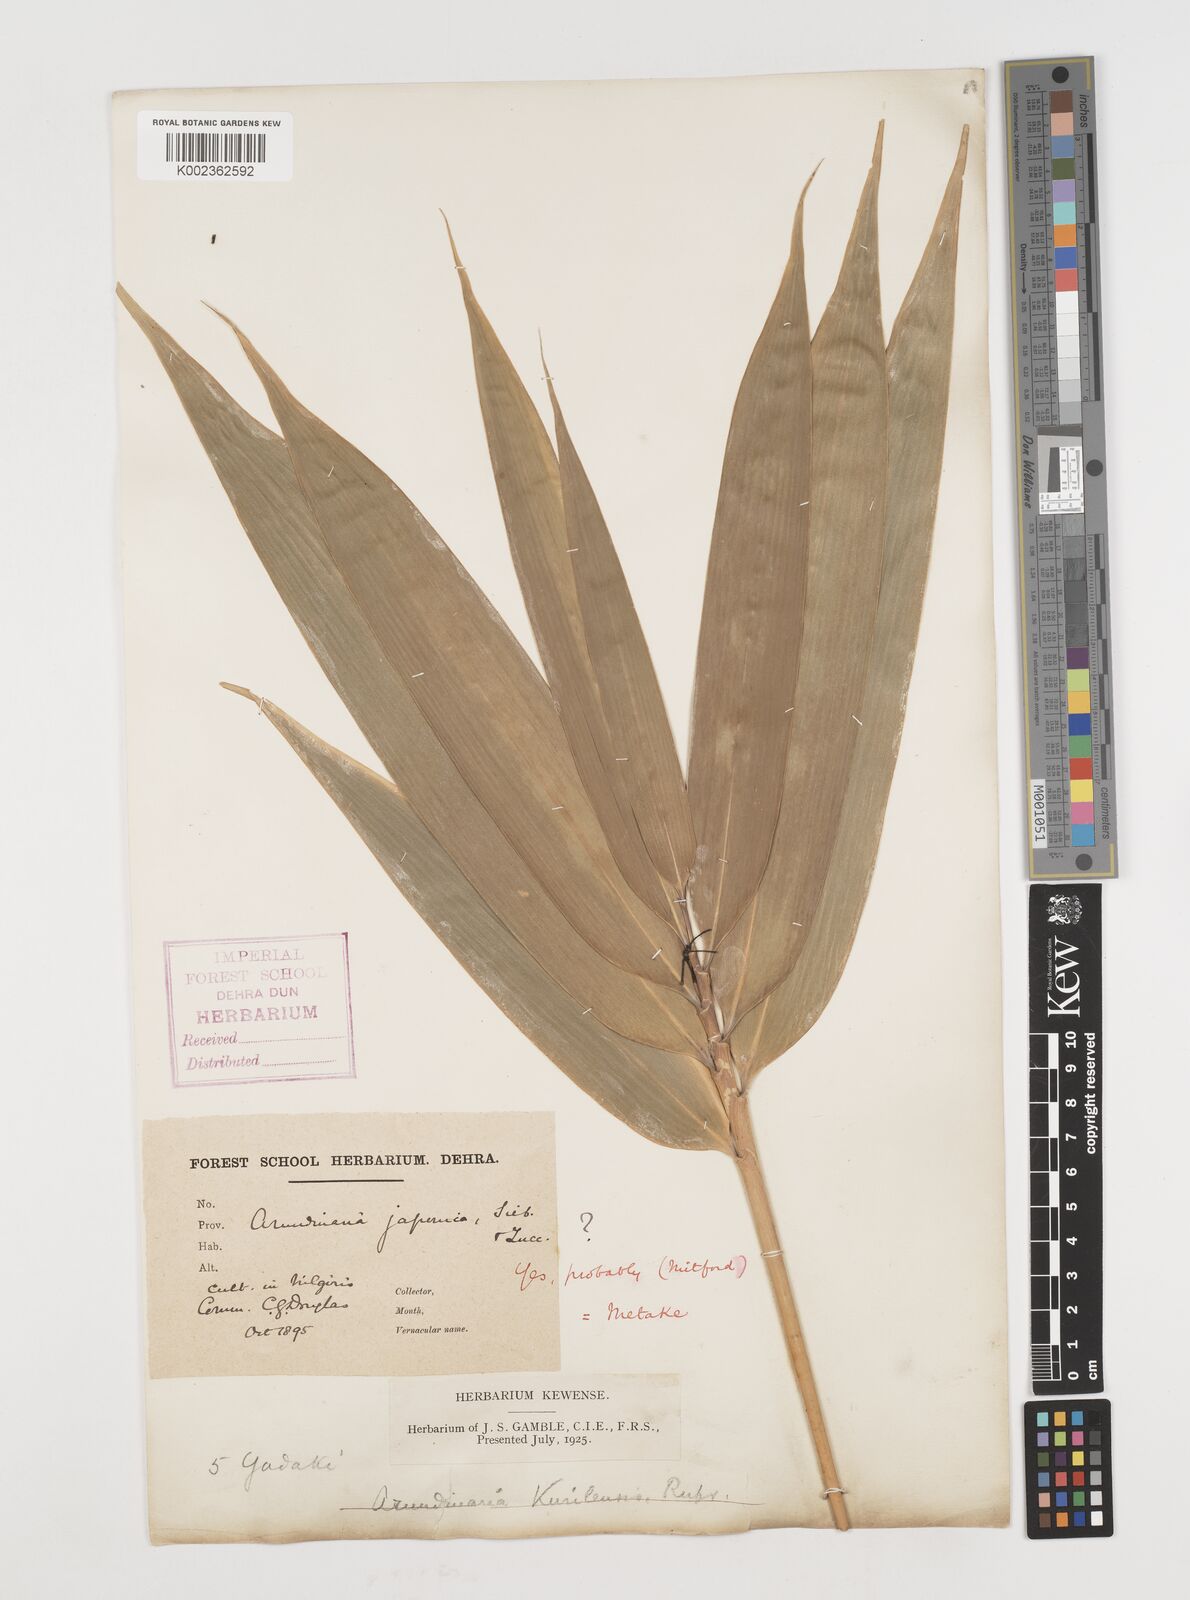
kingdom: Plantae
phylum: Tracheophyta
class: Liliopsida
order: Poales
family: Poaceae
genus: Pseudosasa
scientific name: Pseudosasa japonica
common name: Arrow bamboo
